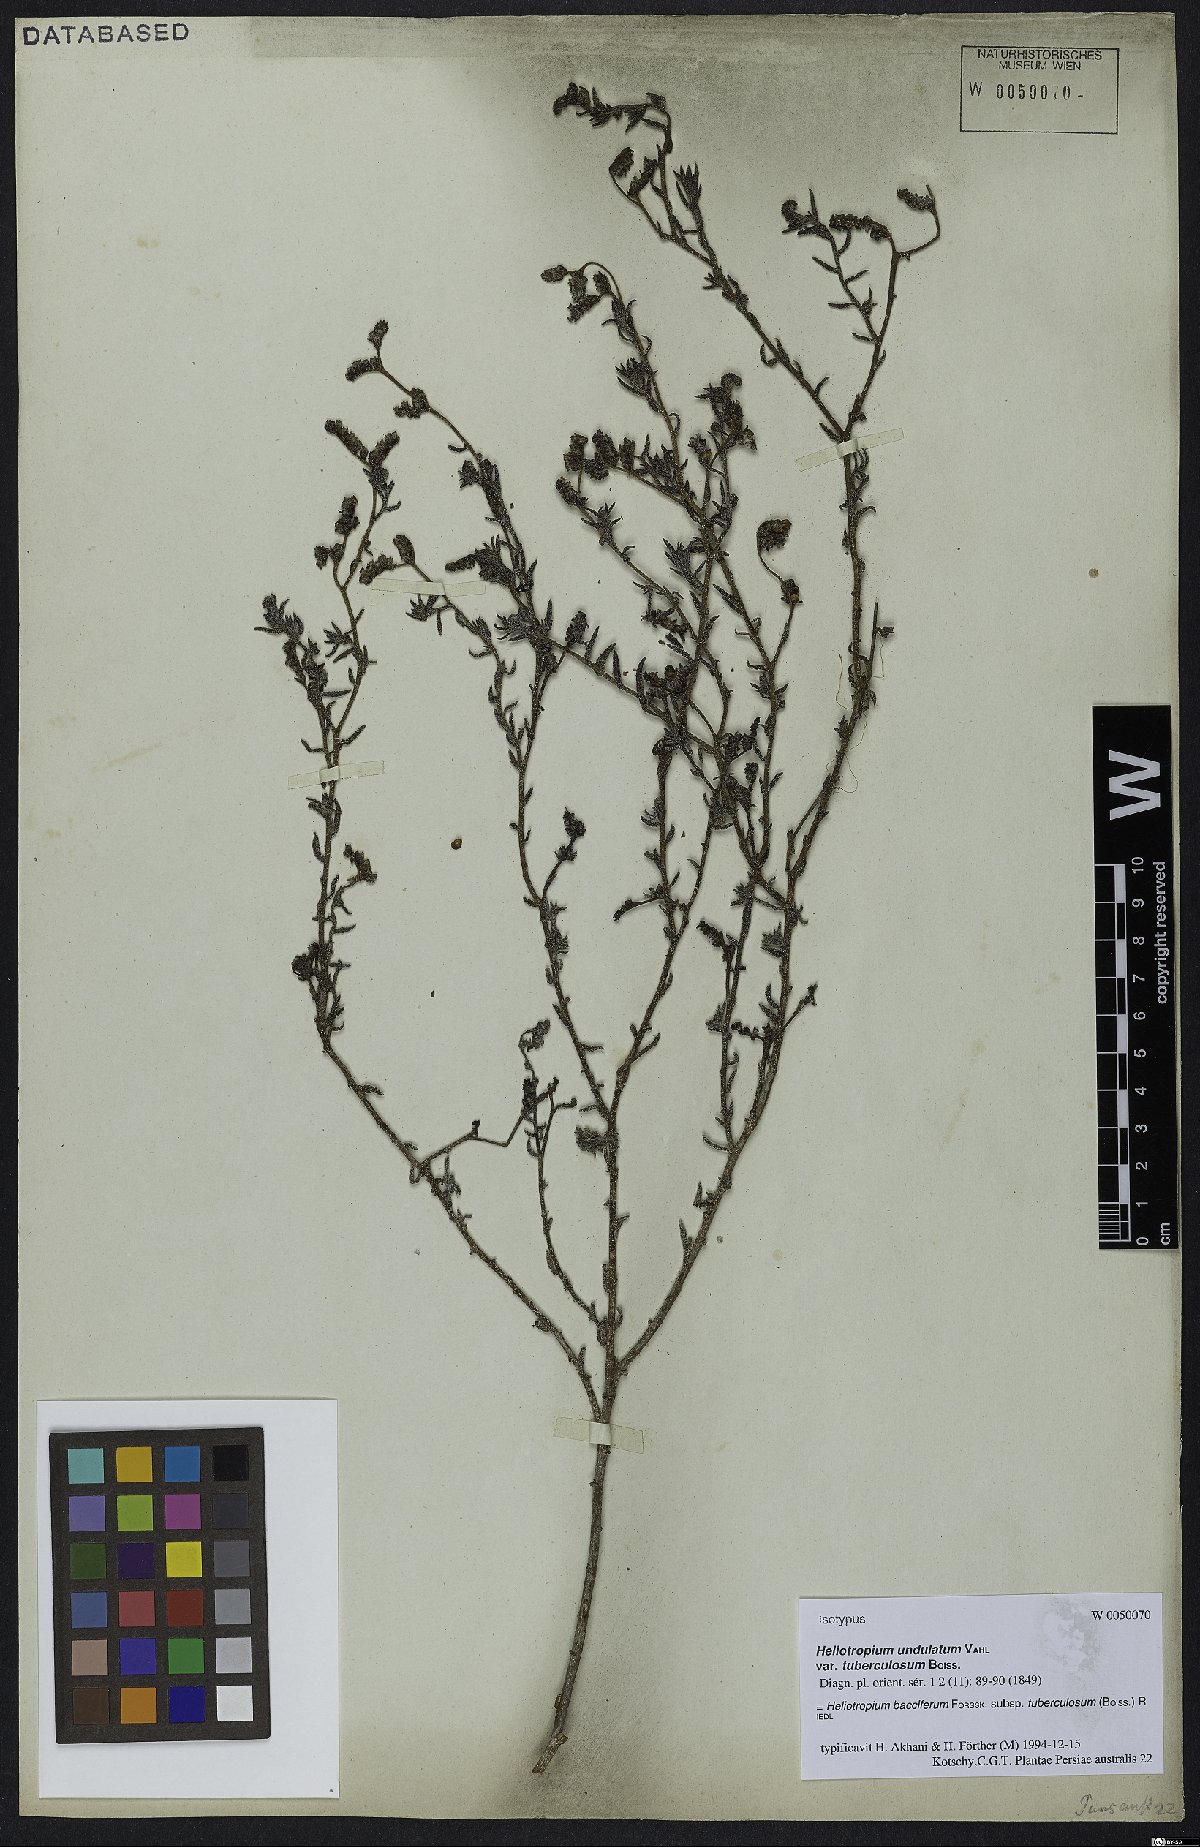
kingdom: Plantae
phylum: Tracheophyta
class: Magnoliopsida
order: Boraginales
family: Heliotropiaceae
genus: Heliotropium
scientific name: Heliotropium bacciferum
